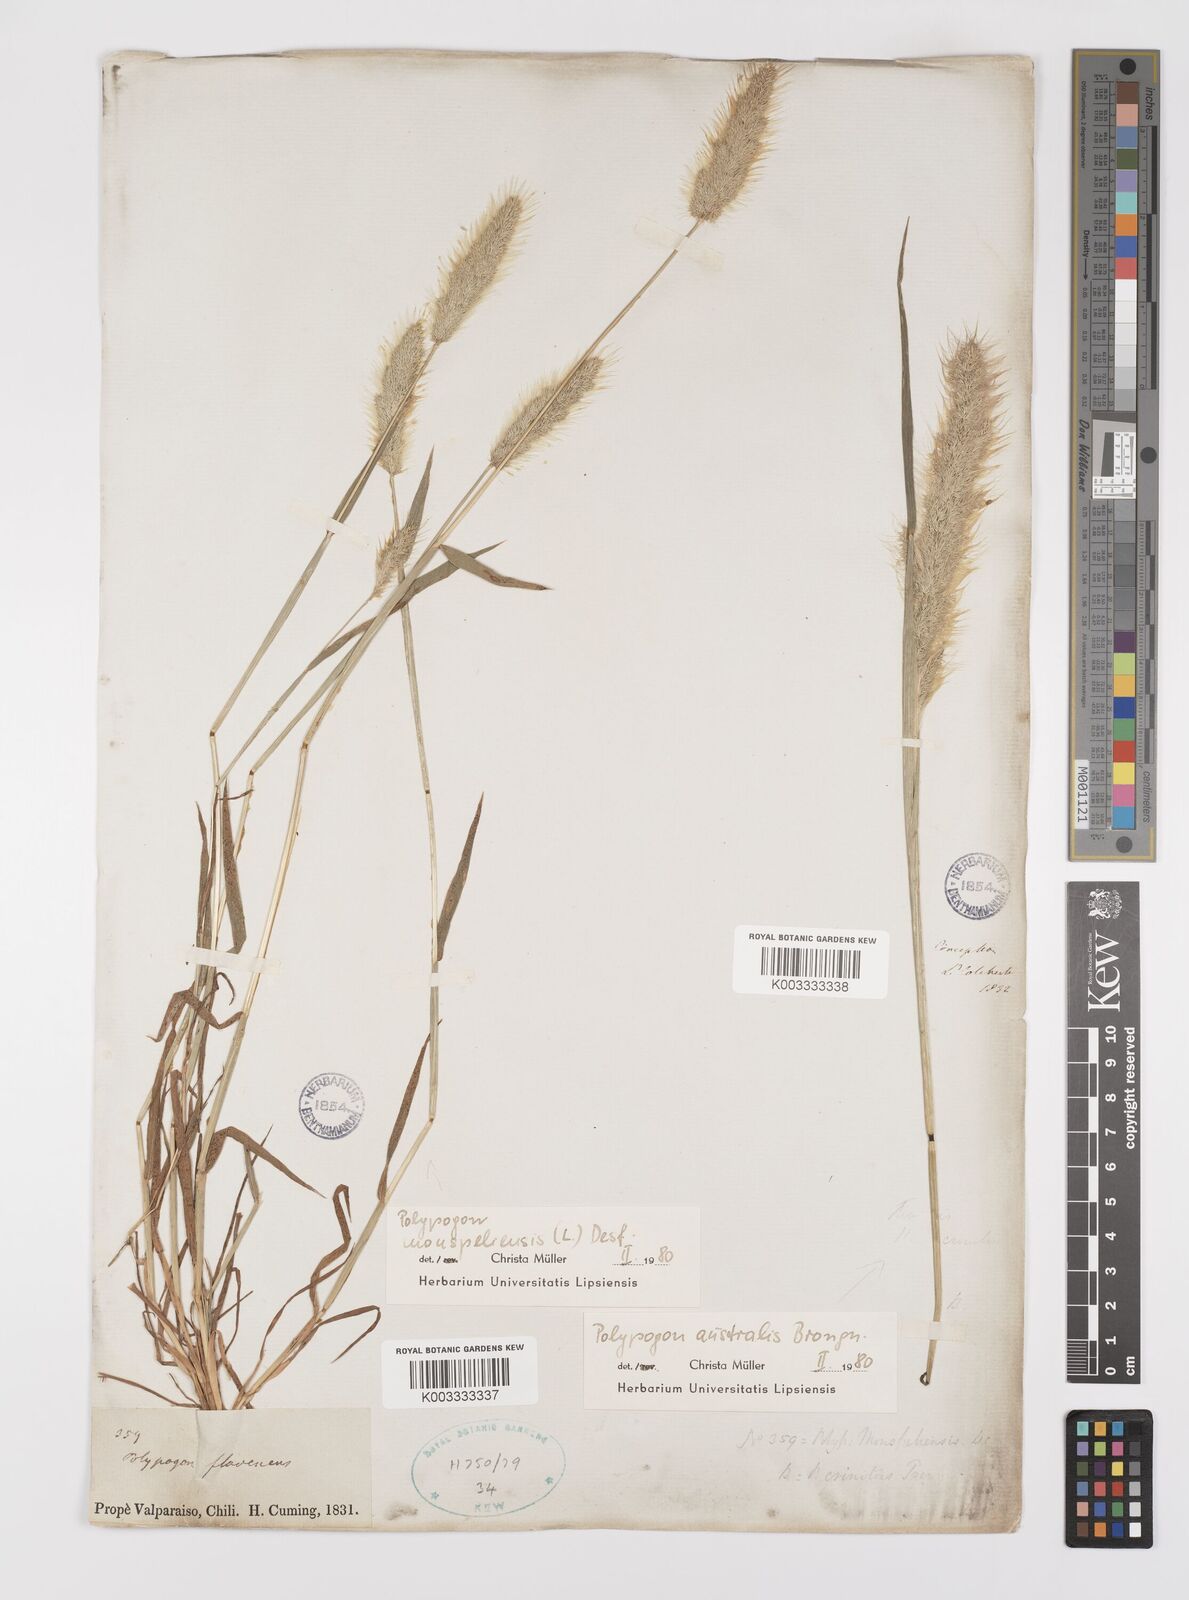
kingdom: Plantae
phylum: Tracheophyta
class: Liliopsida
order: Poales
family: Poaceae
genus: Polypogon
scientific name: Polypogon monspeliensis
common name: Annual rabbitsfoot grass
